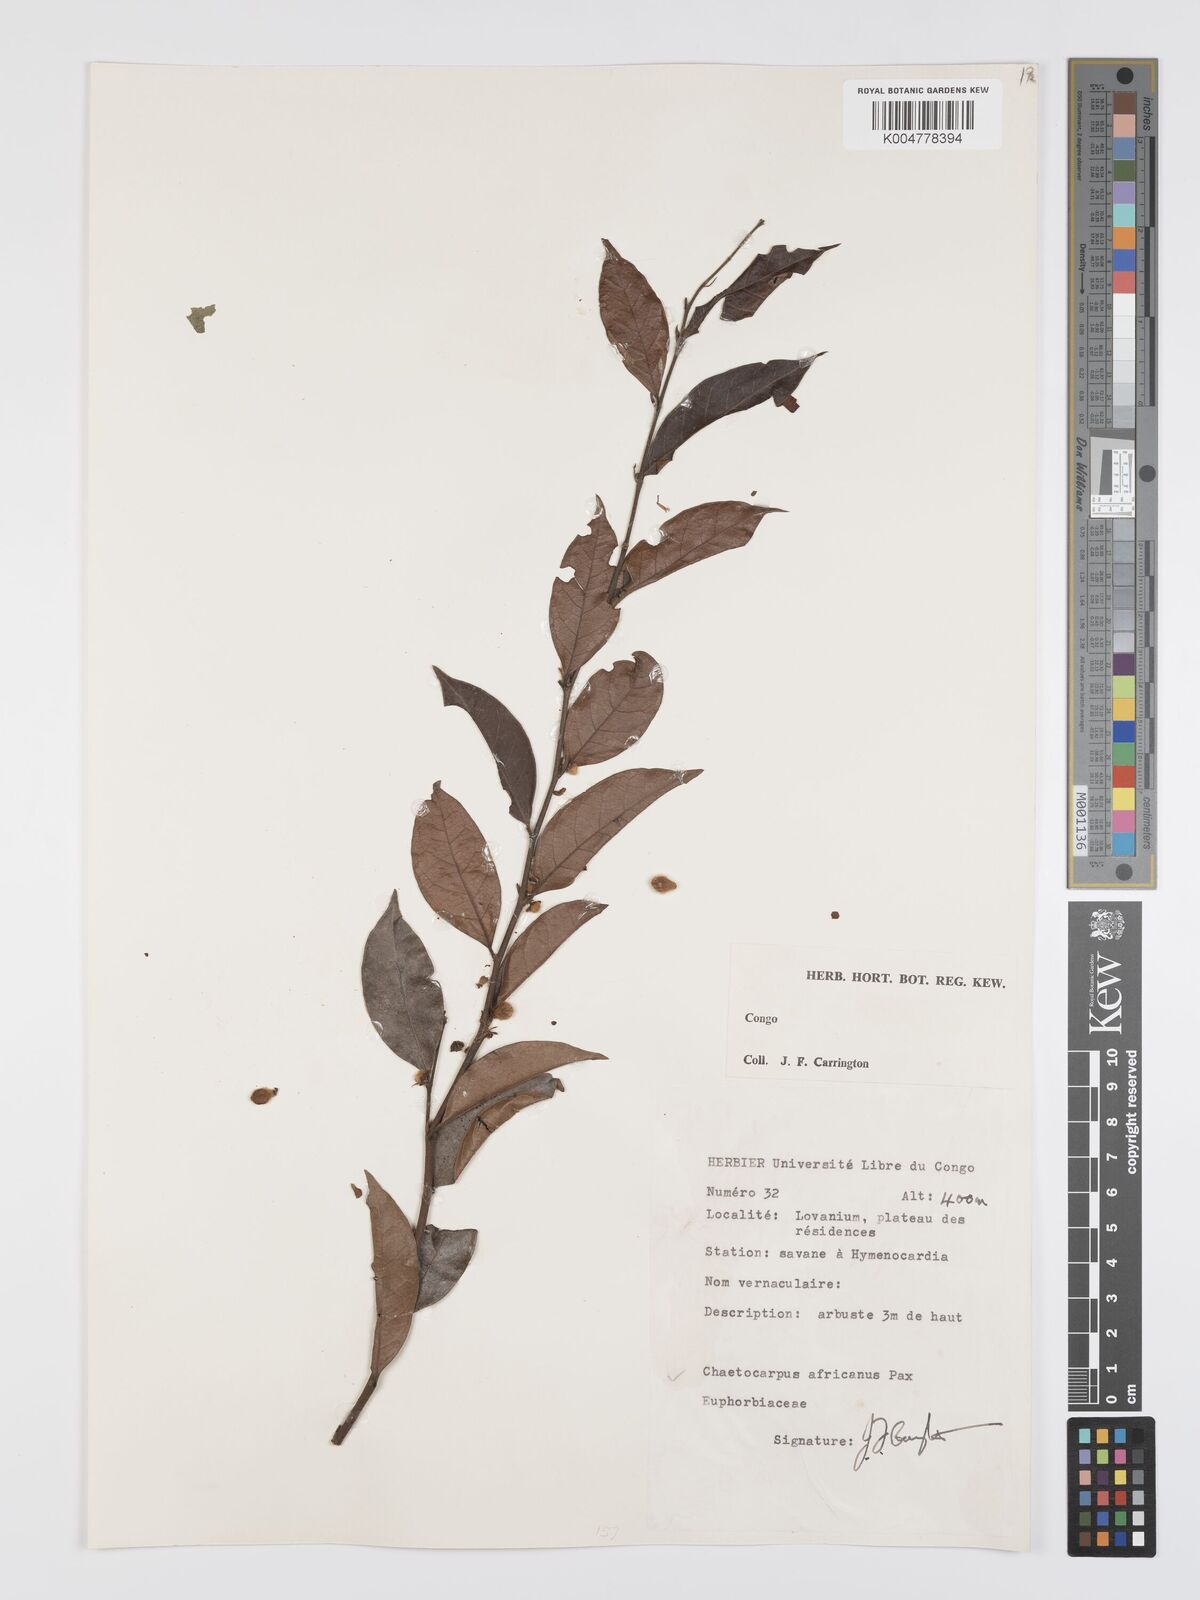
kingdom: Plantae
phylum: Tracheophyta
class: Magnoliopsida
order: Malpighiales
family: Peraceae
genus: Chaetocarpus
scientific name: Chaetocarpus africanus
